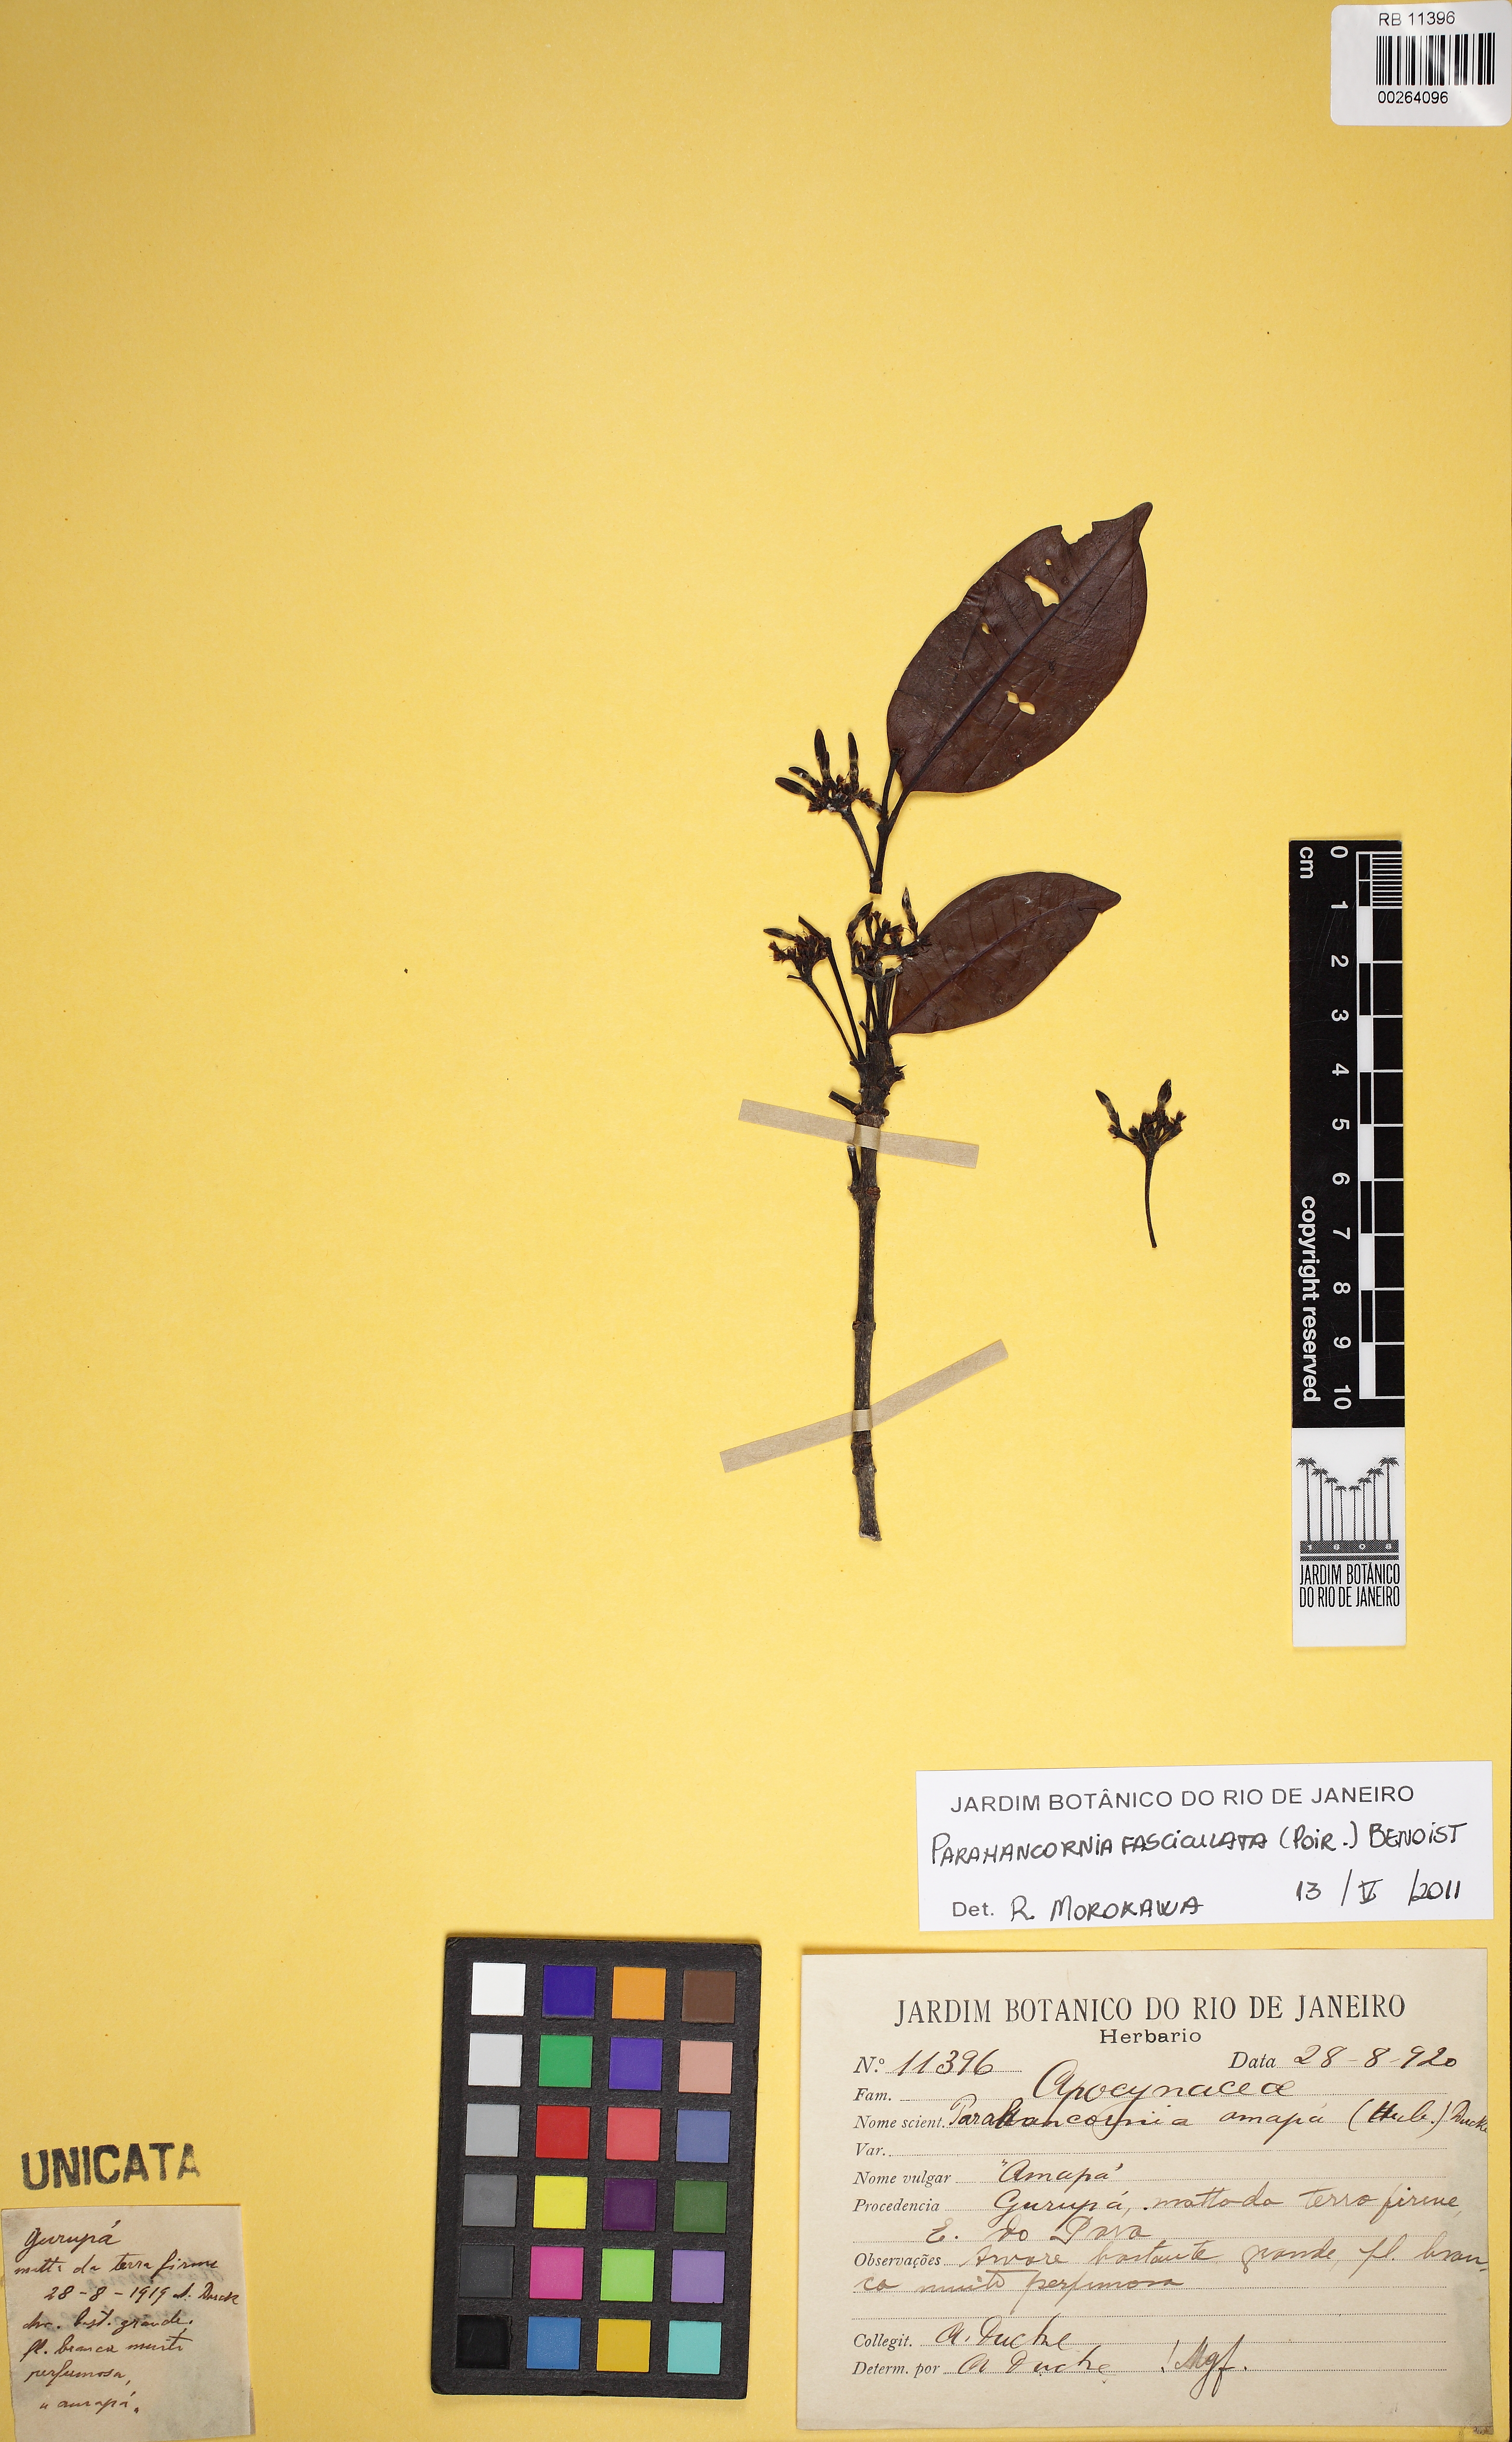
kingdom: Plantae
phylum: Tracheophyta
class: Magnoliopsida
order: Gentianales
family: Apocynaceae
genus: Parahancornia
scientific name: Parahancornia fasciculata
